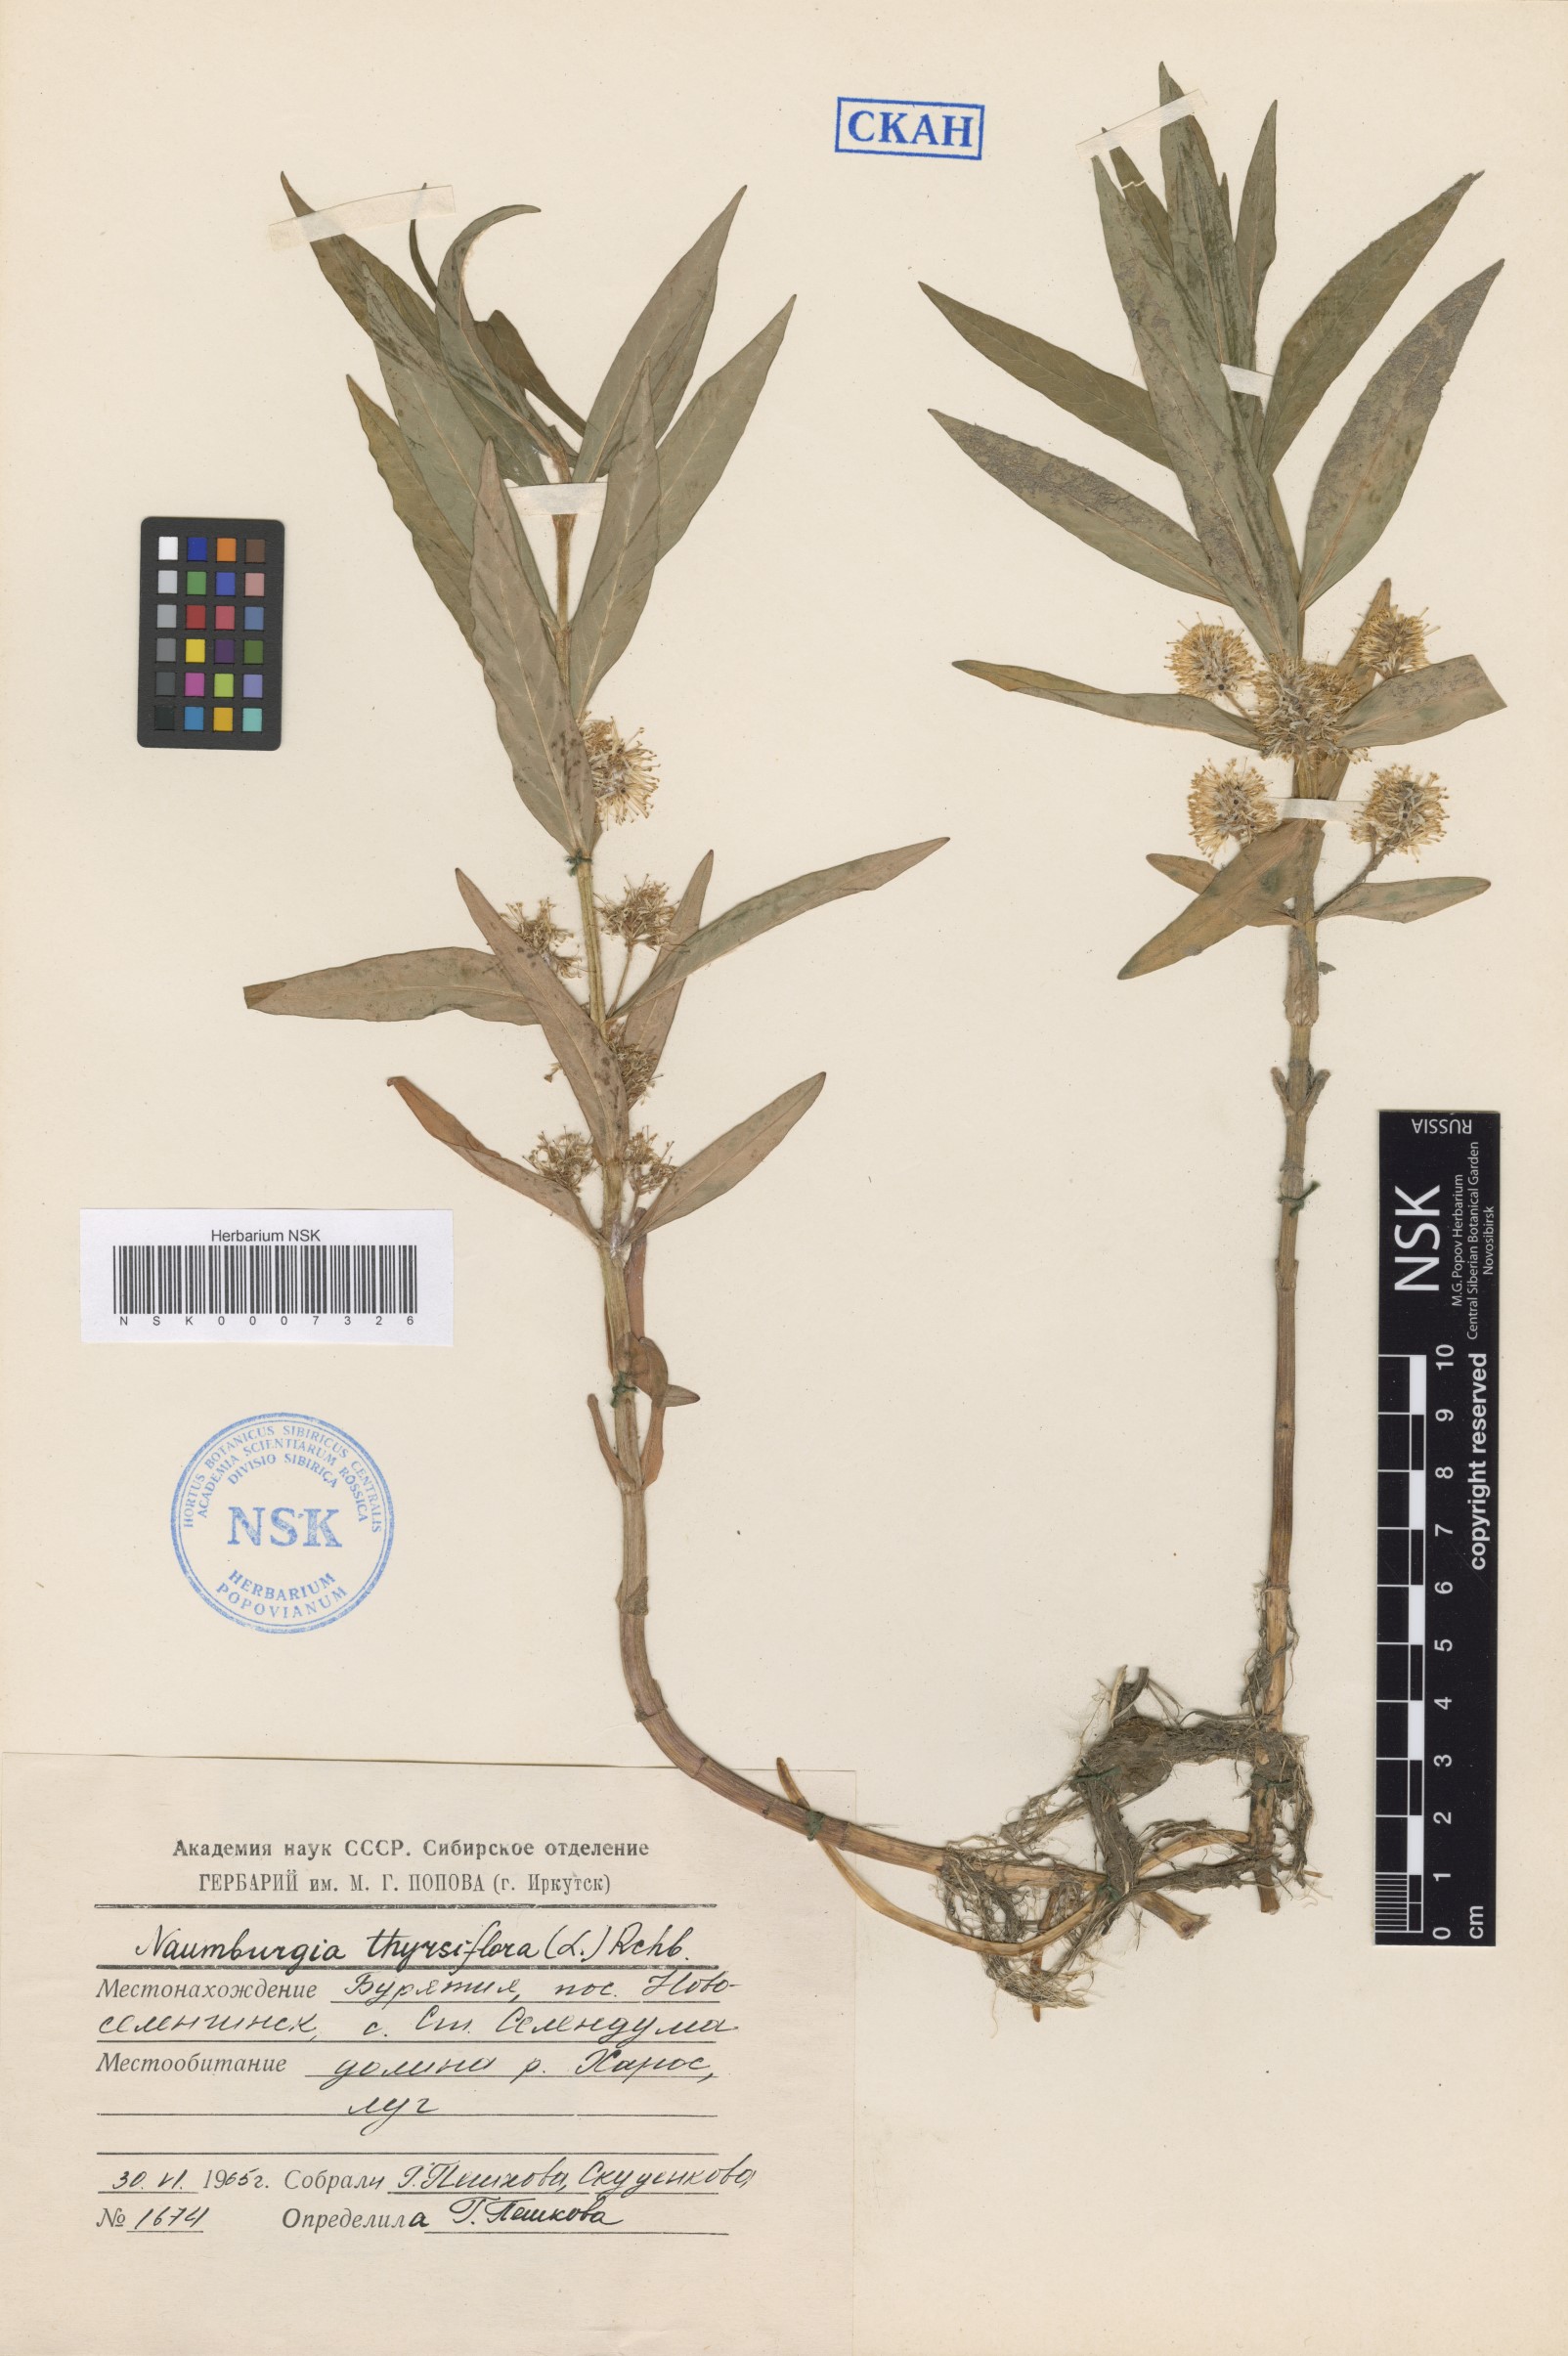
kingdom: Plantae
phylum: Tracheophyta
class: Magnoliopsida
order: Ericales
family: Primulaceae
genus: Lysimachia
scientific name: Lysimachia thyrsiflora
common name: Tufted loosestrife
